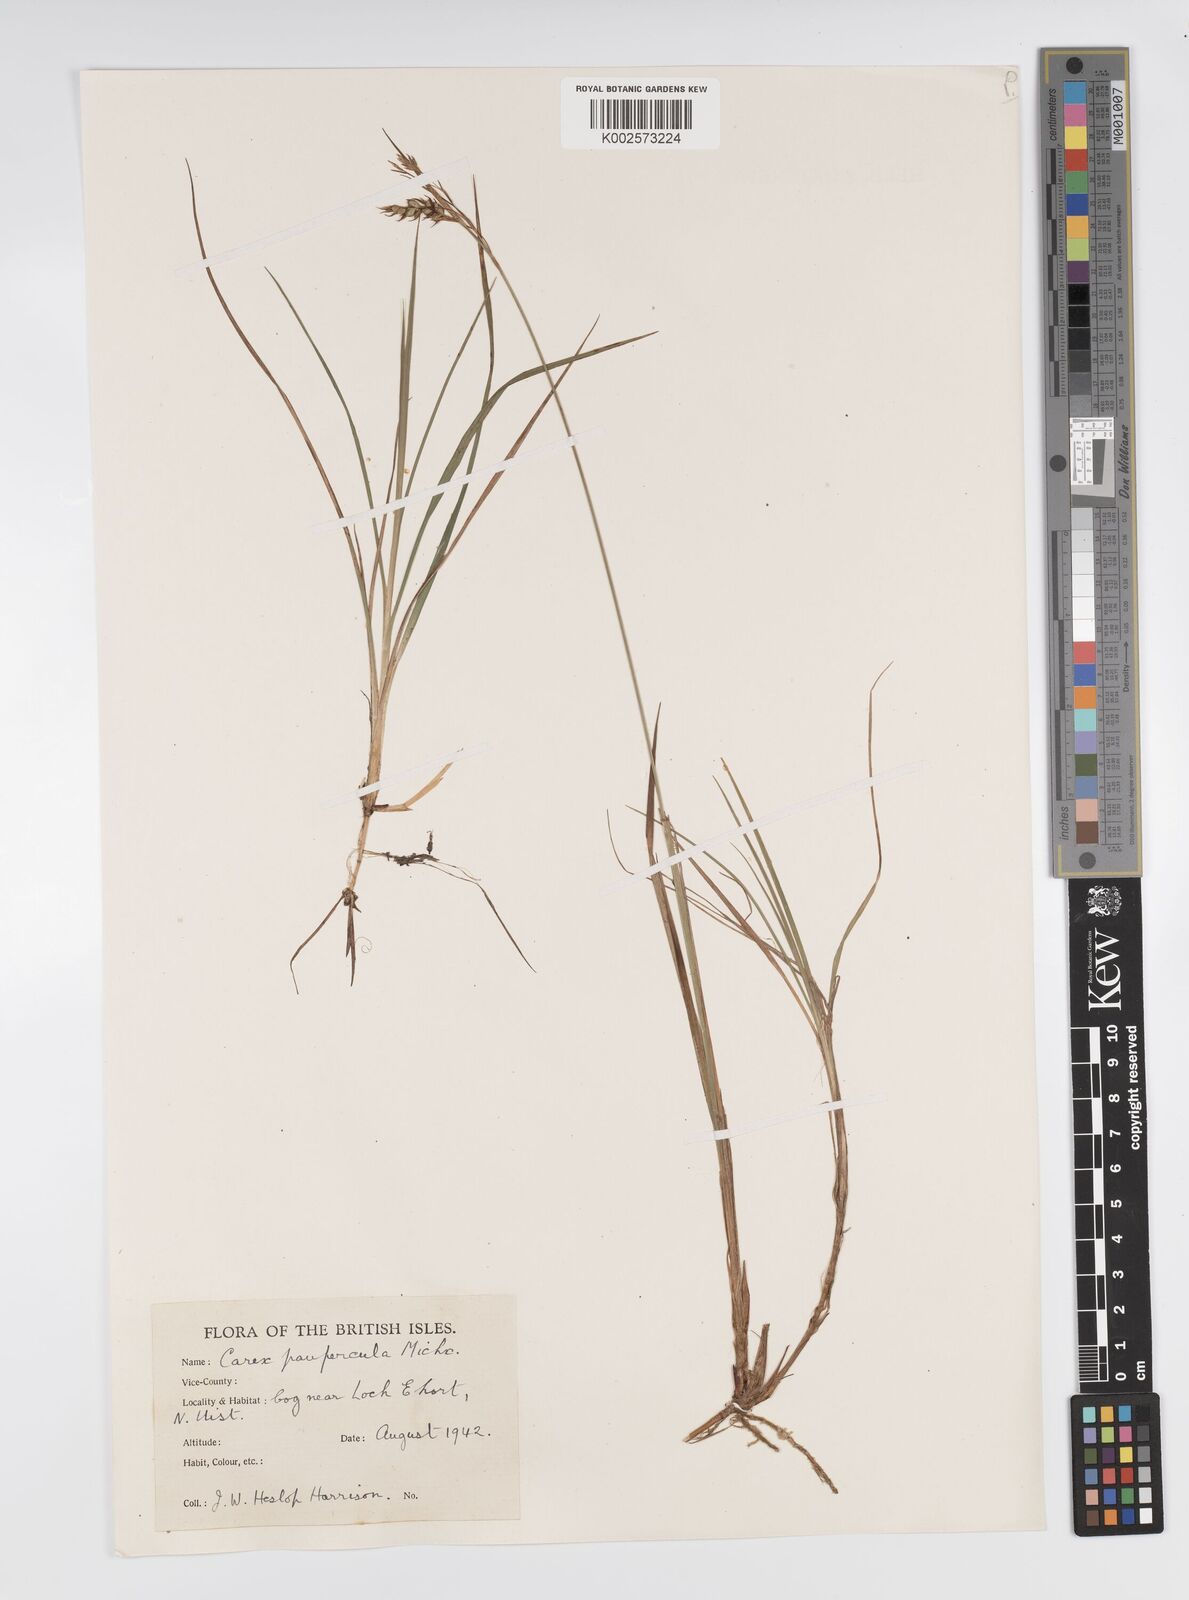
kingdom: Plantae
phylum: Tracheophyta
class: Liliopsida
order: Poales
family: Cyperaceae
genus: Carex
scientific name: Carex magellanica
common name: Bog sedge
